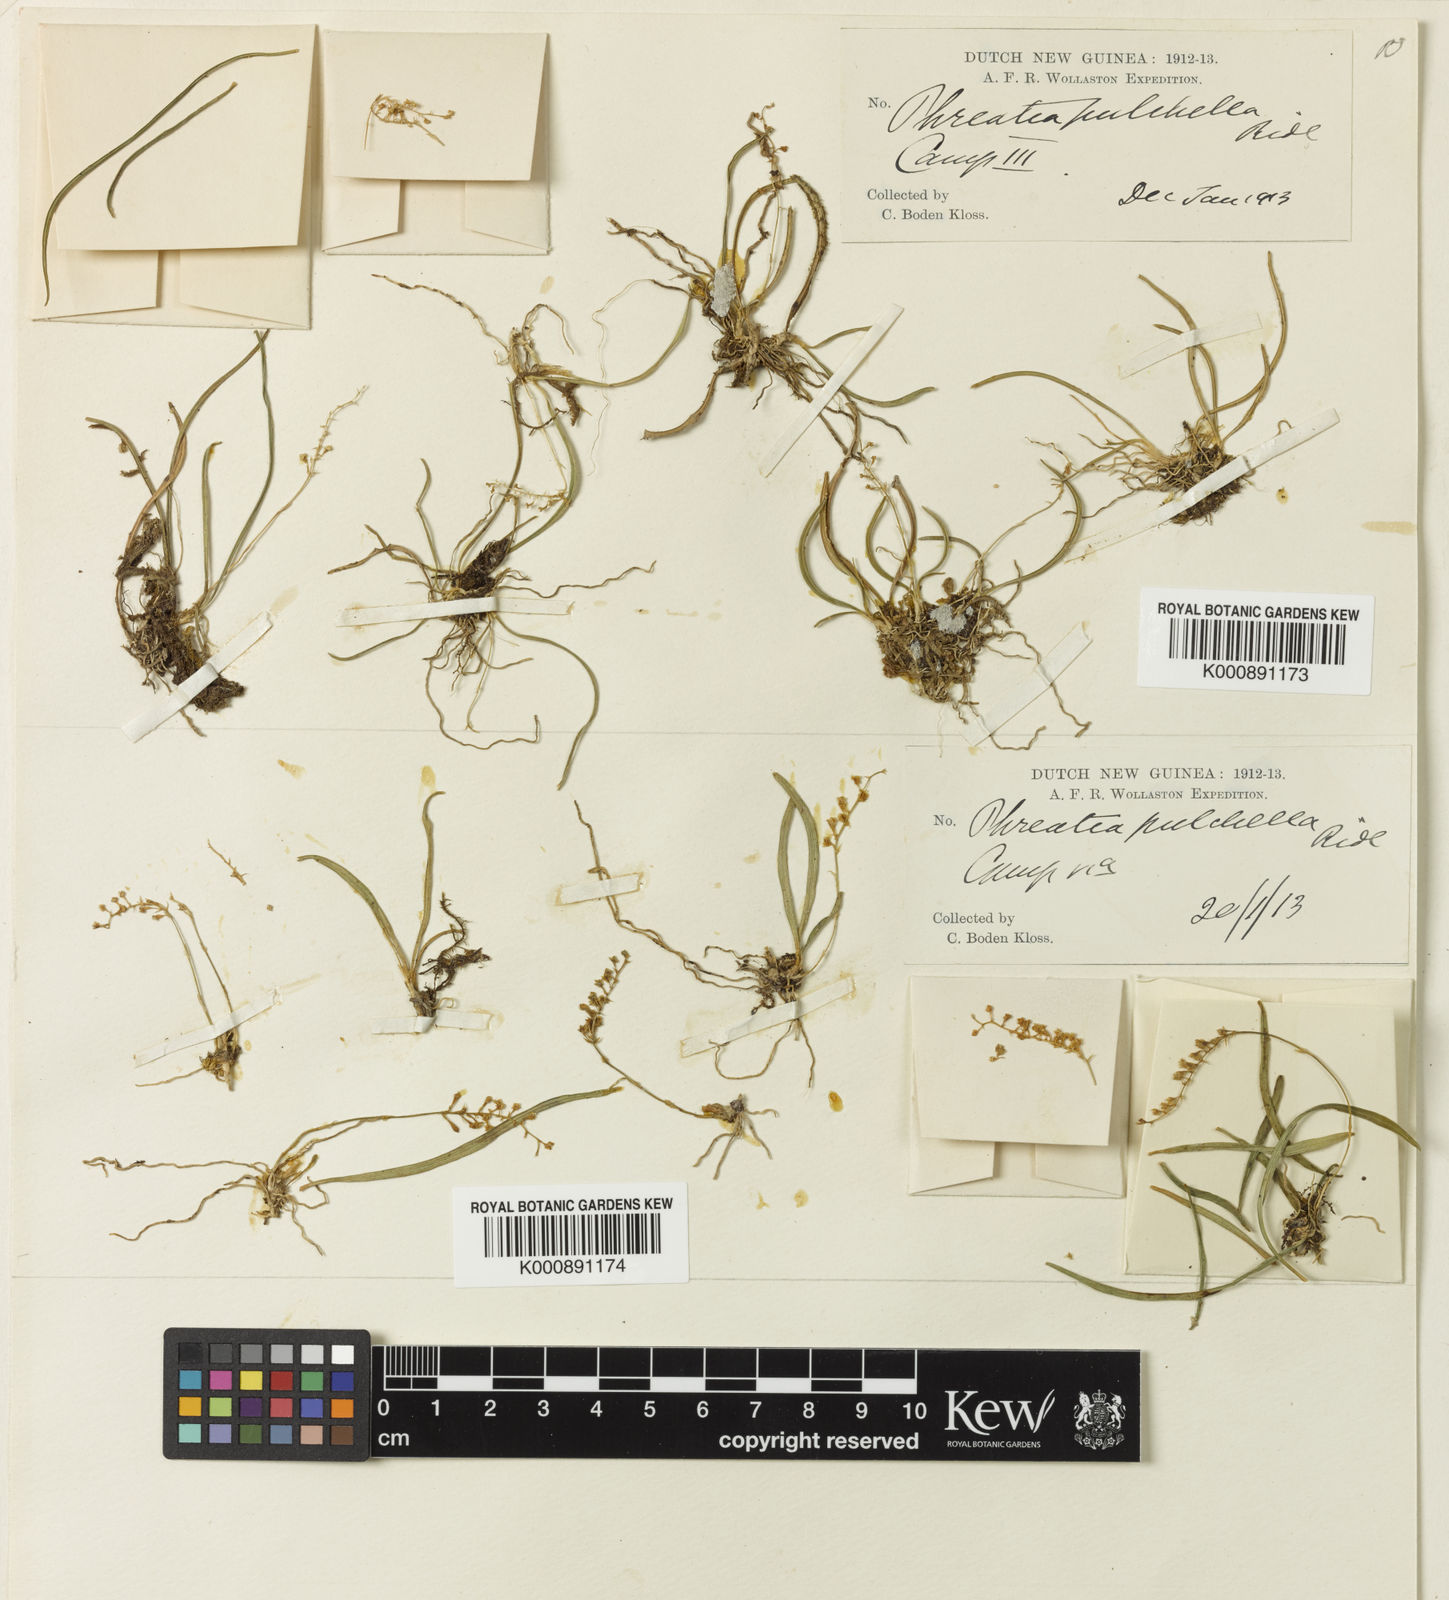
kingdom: Plantae
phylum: Tracheophyta
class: Liliopsida
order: Asparagales
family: Orchidaceae
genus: Phreatia
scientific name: Phreatia pulchella
